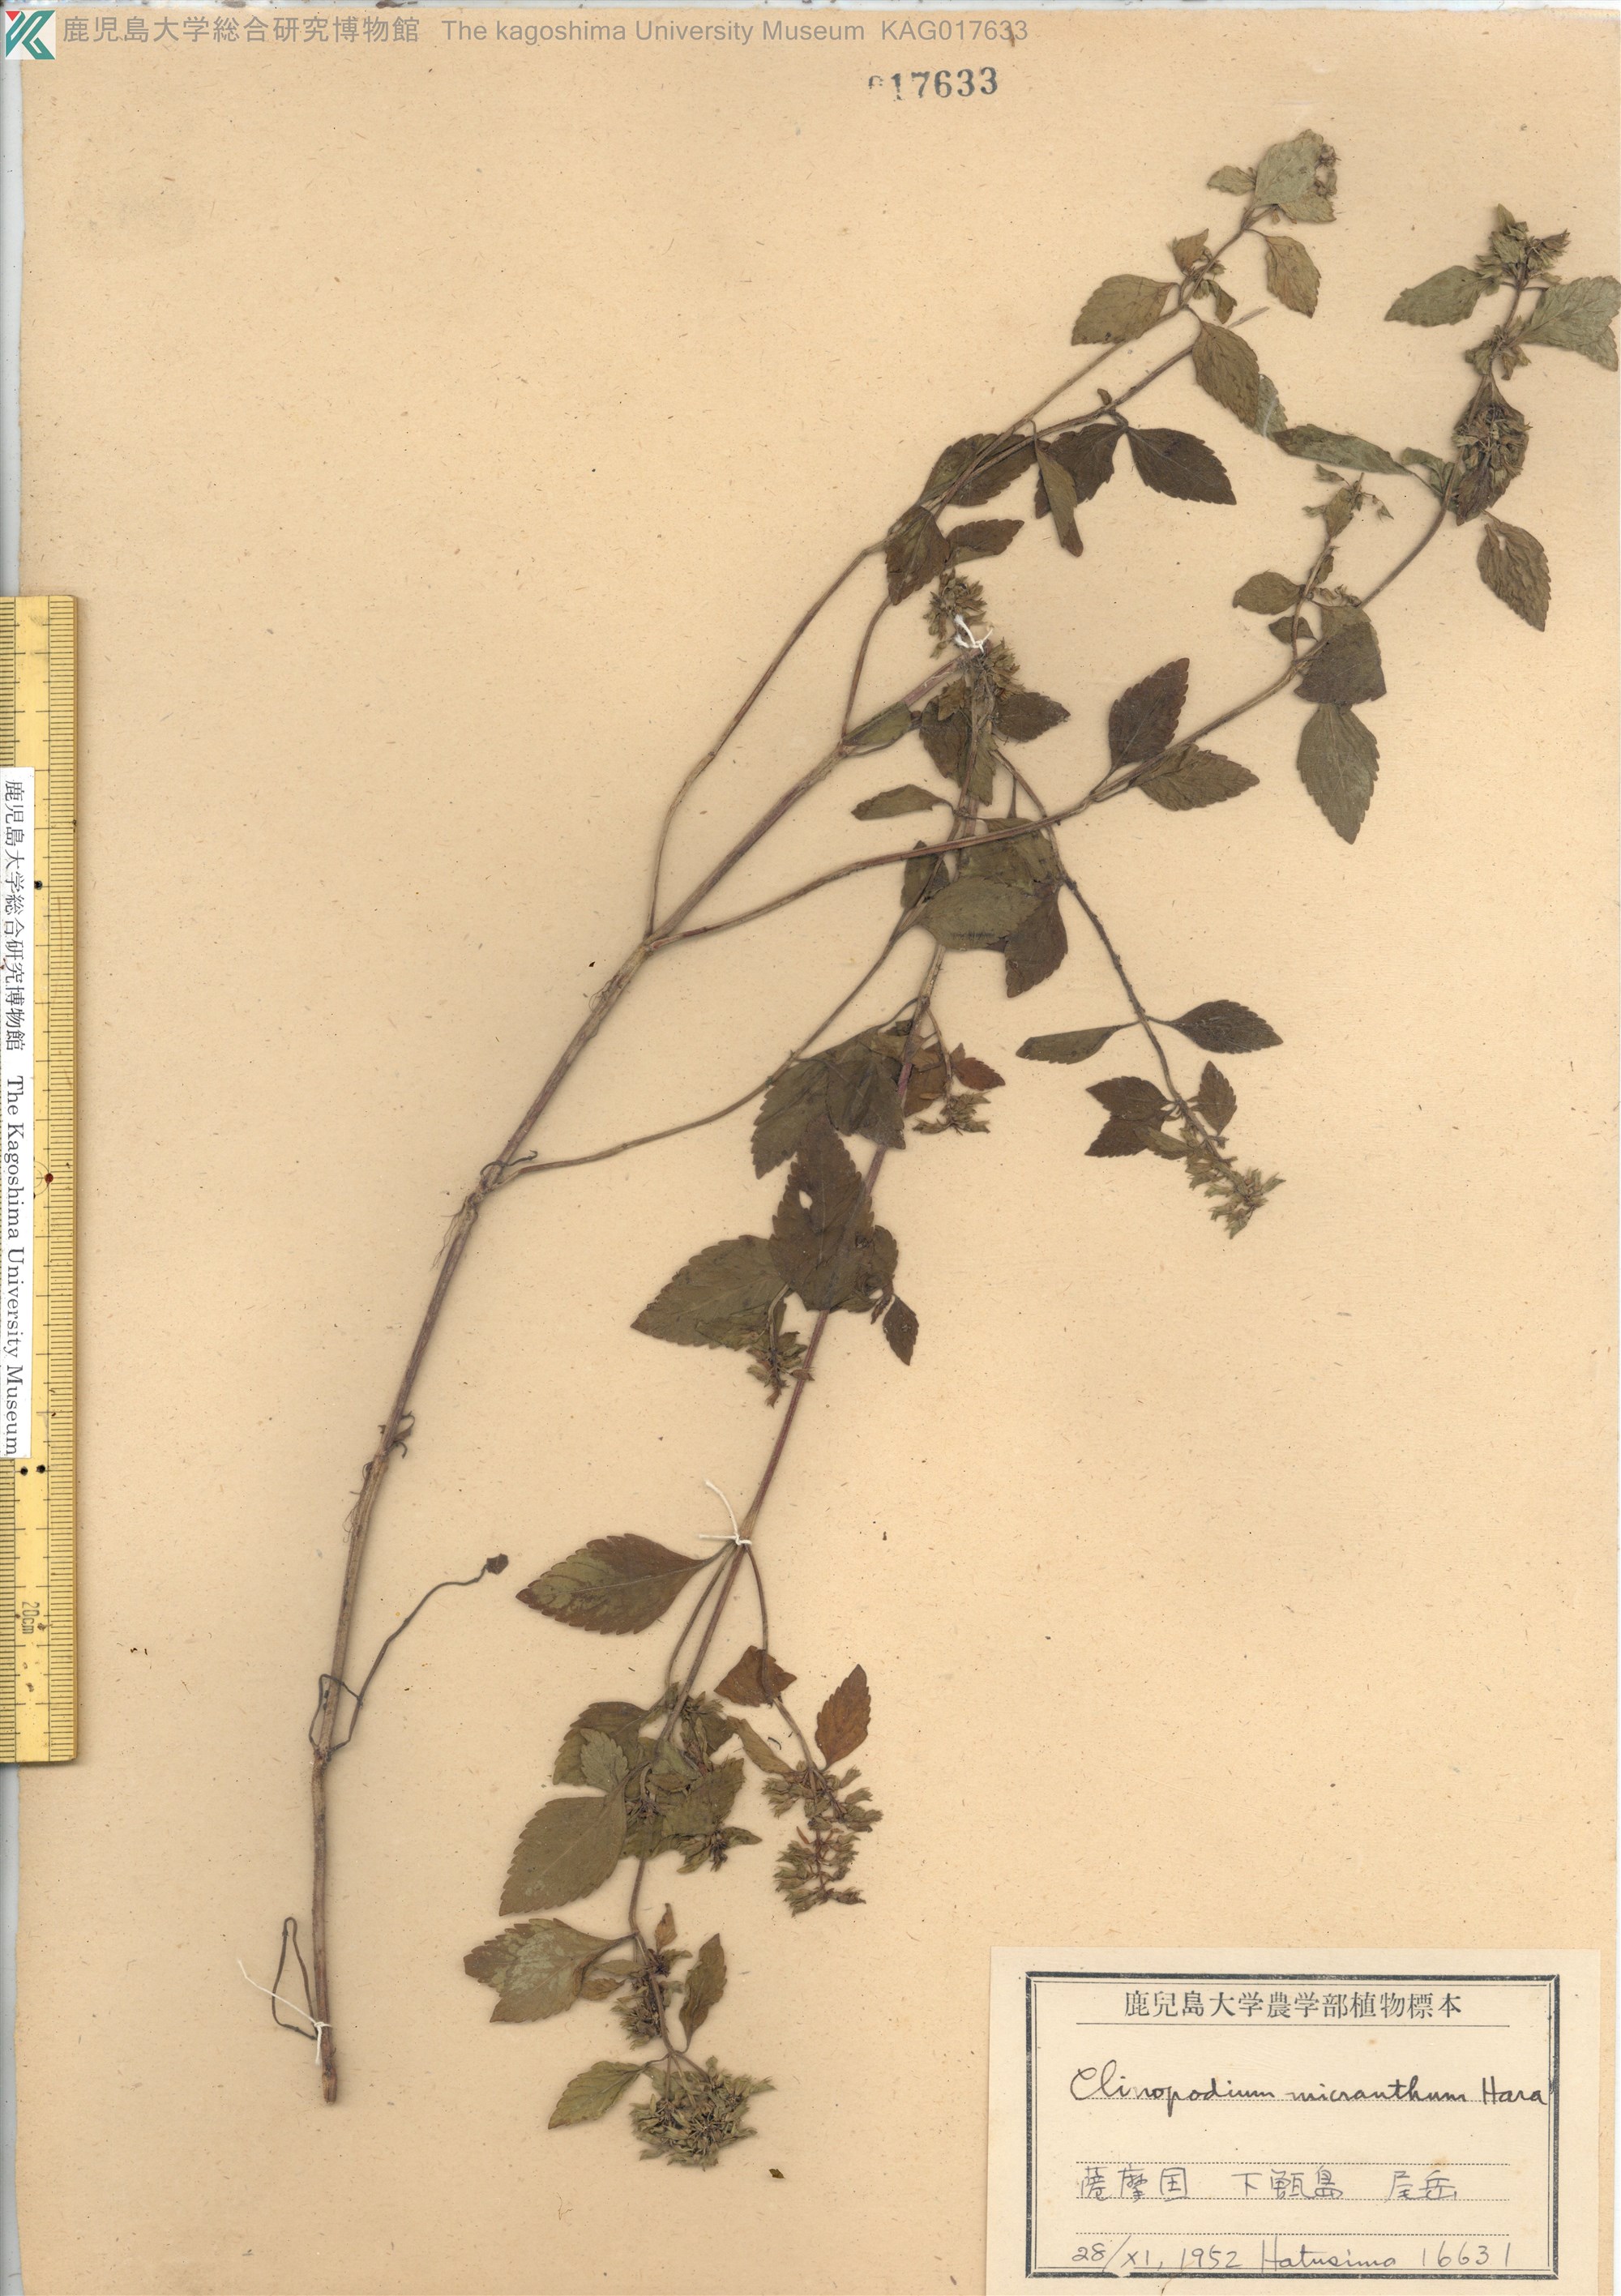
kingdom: Plantae
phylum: Tracheophyta
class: Magnoliopsida
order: Lamiales
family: Lamiaceae
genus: Clinopodium
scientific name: Clinopodium micranthum
